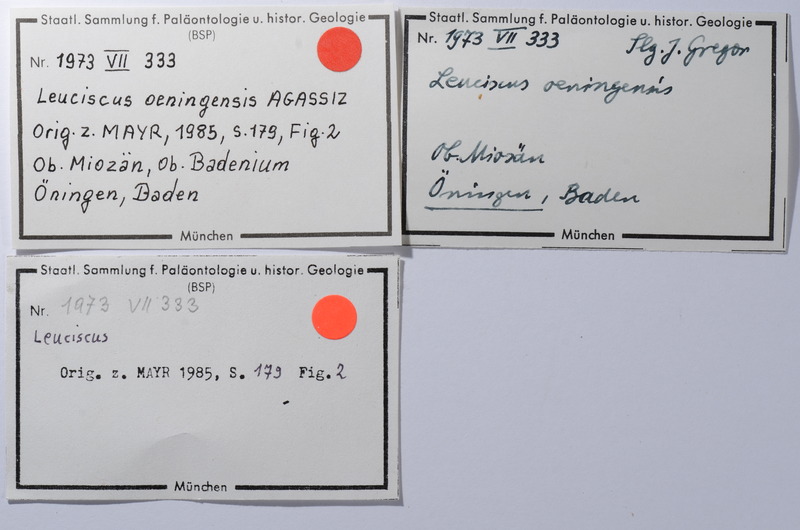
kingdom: Animalia
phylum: Chordata
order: Cypriniformes
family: Cyprinidae
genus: Leuciscus
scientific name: Leuciscus oeningensis
